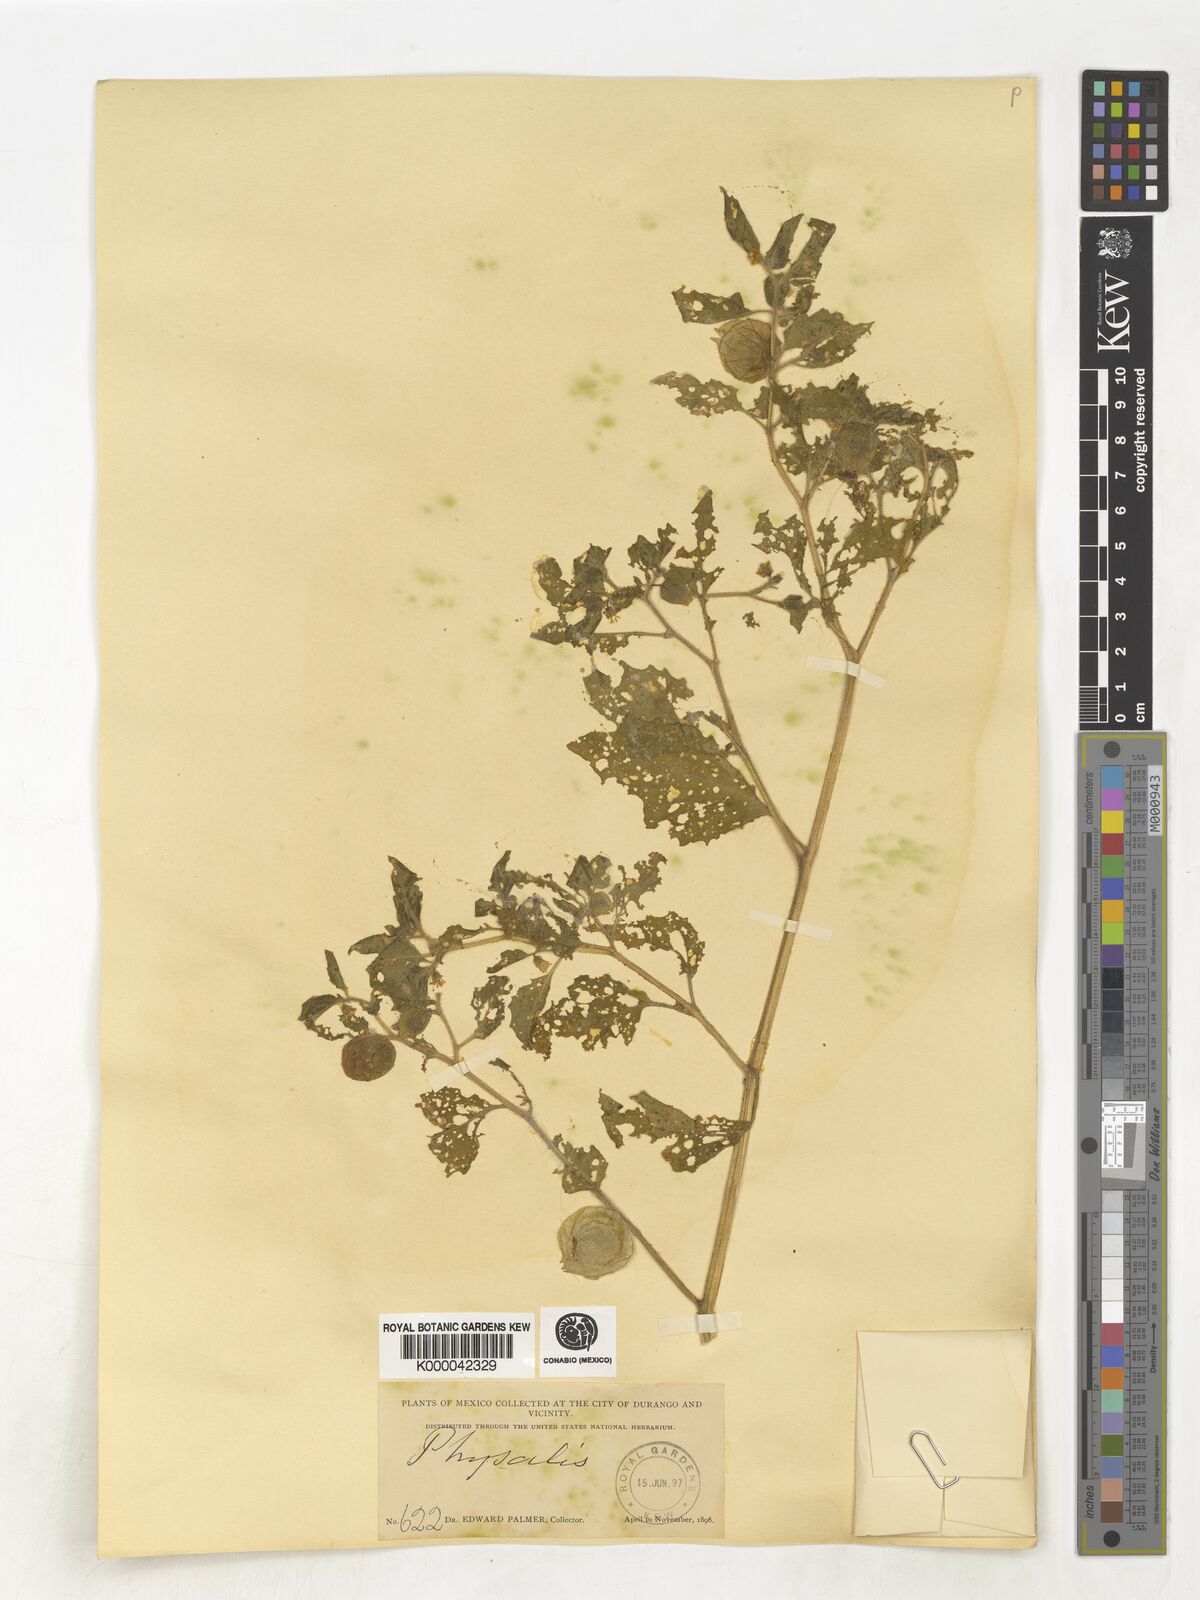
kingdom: Plantae
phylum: Tracheophyta
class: Magnoliopsida
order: Solanales
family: Solanaceae
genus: Physalis
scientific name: Physalis
